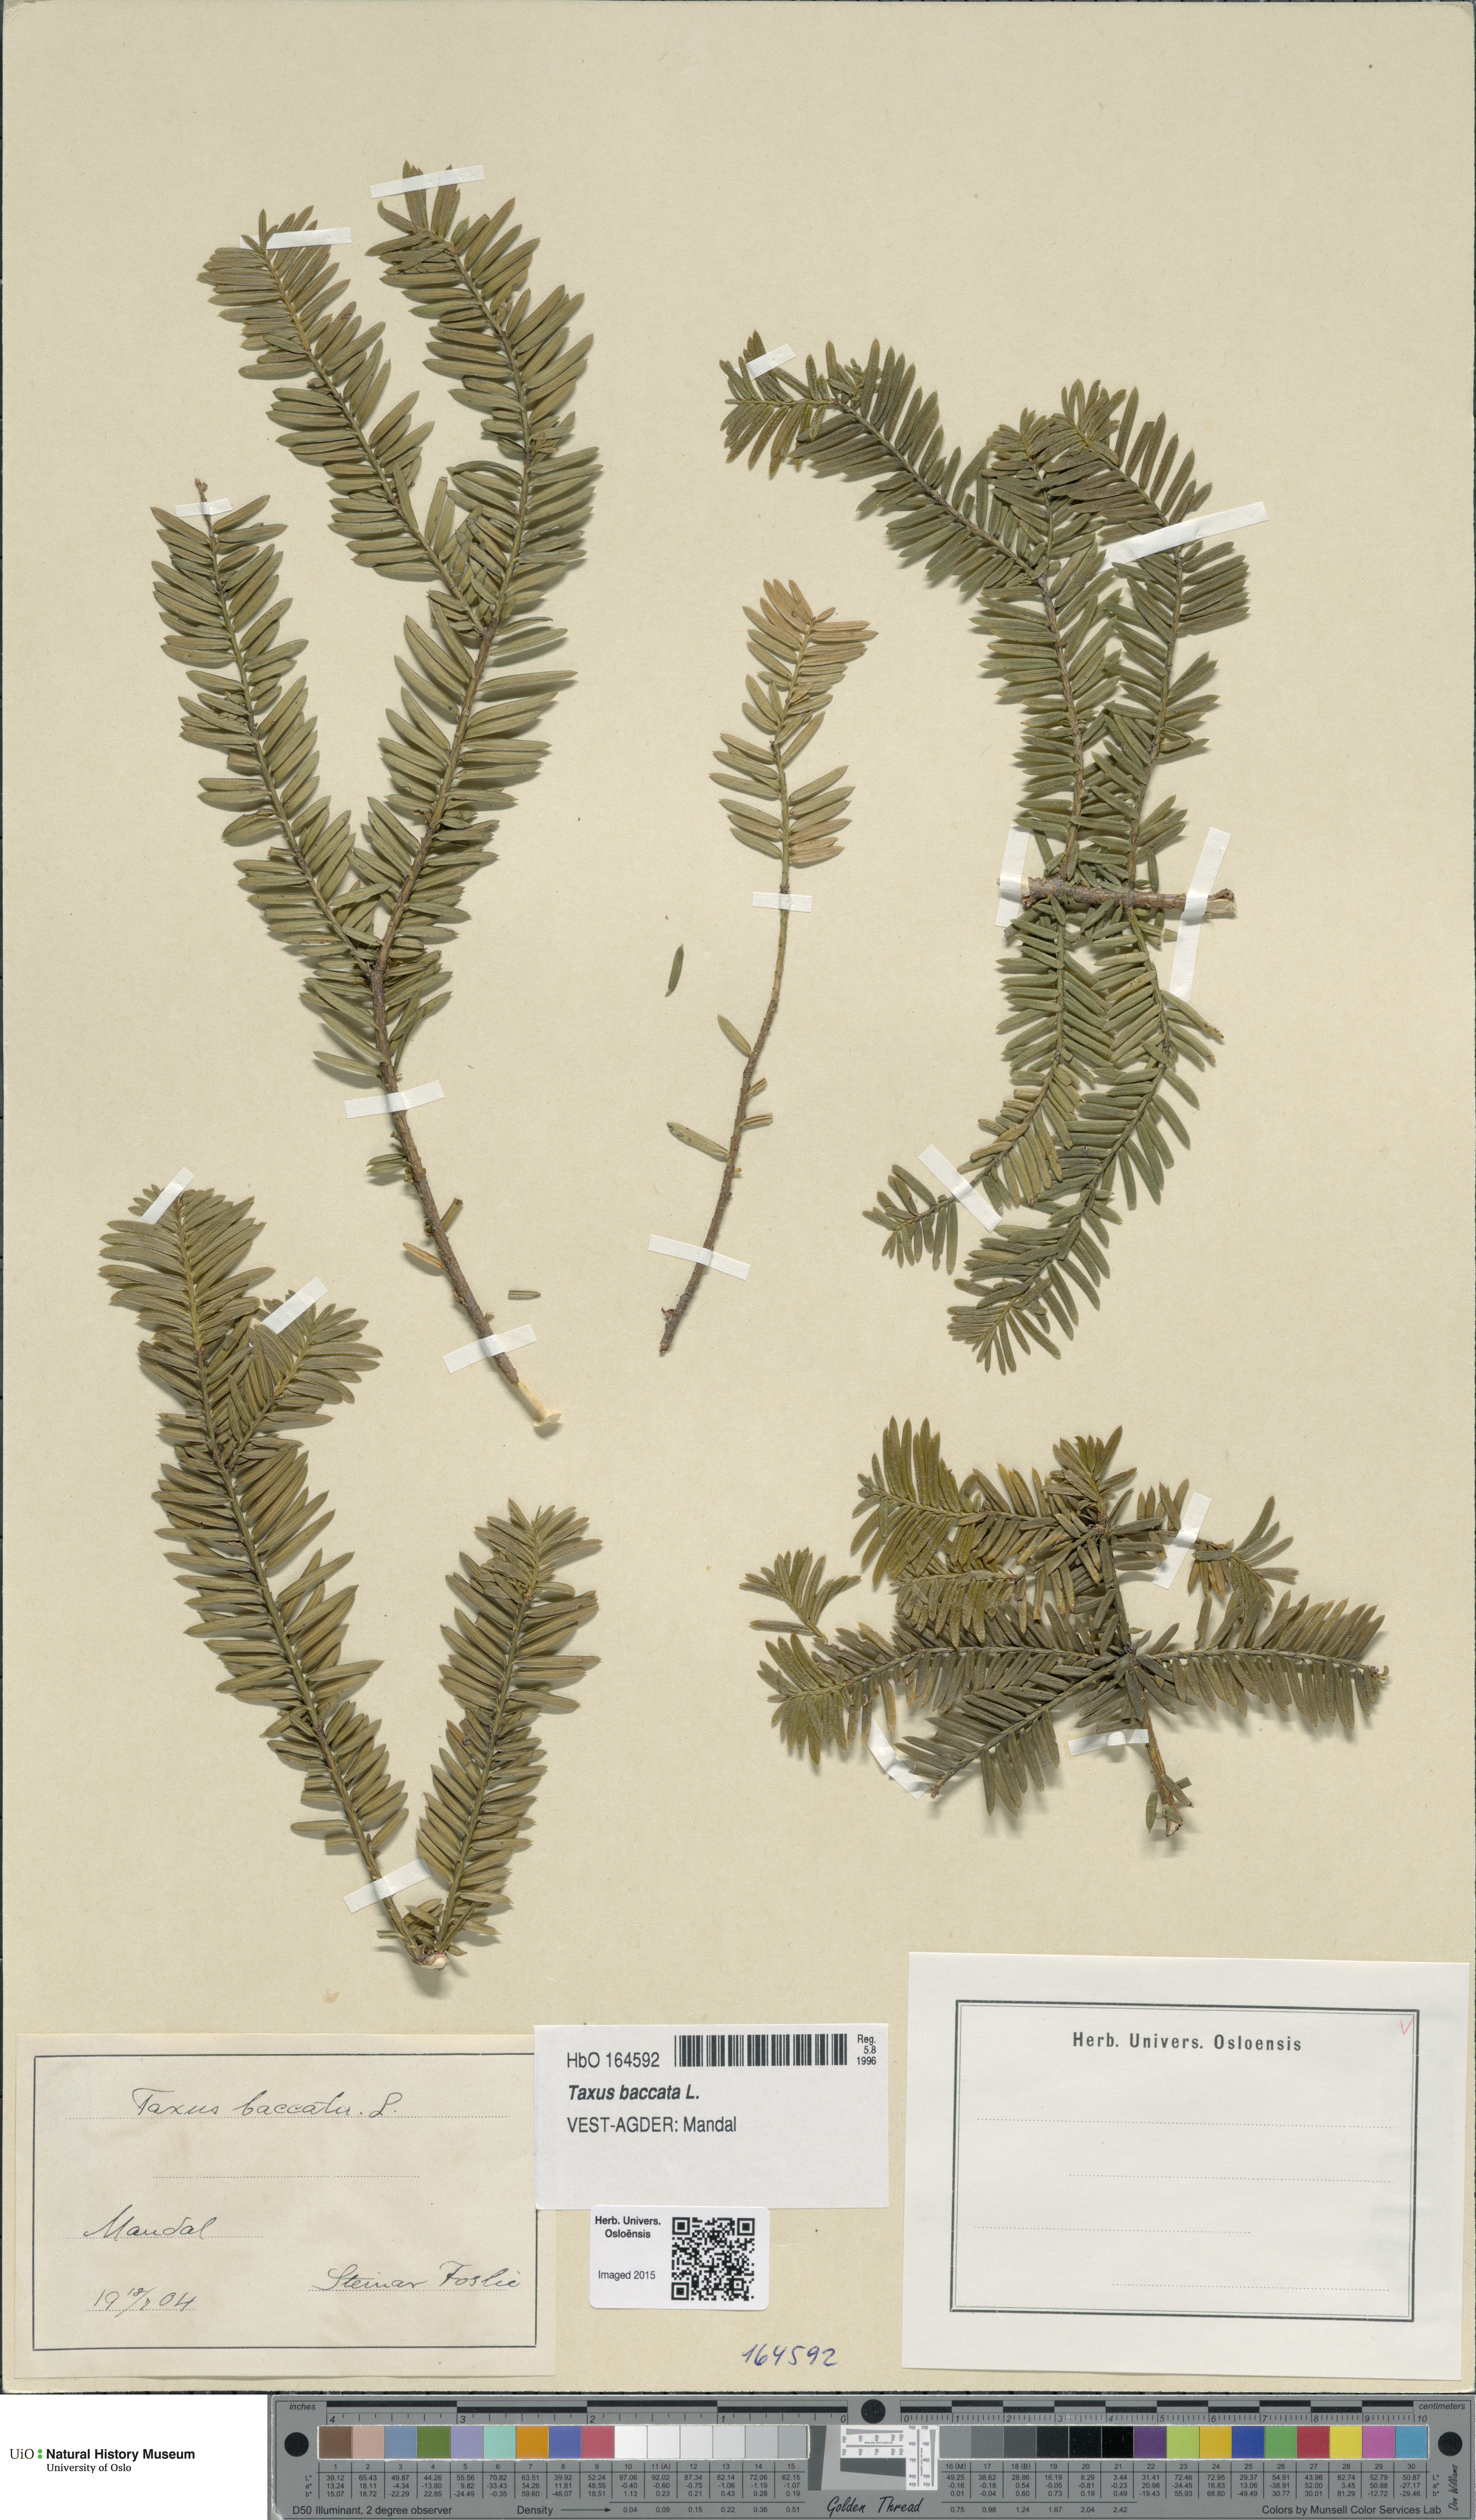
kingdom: Plantae
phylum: Tracheophyta
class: Pinopsida
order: Pinales
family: Taxaceae
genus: Taxus
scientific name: Taxus baccata
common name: Yew
